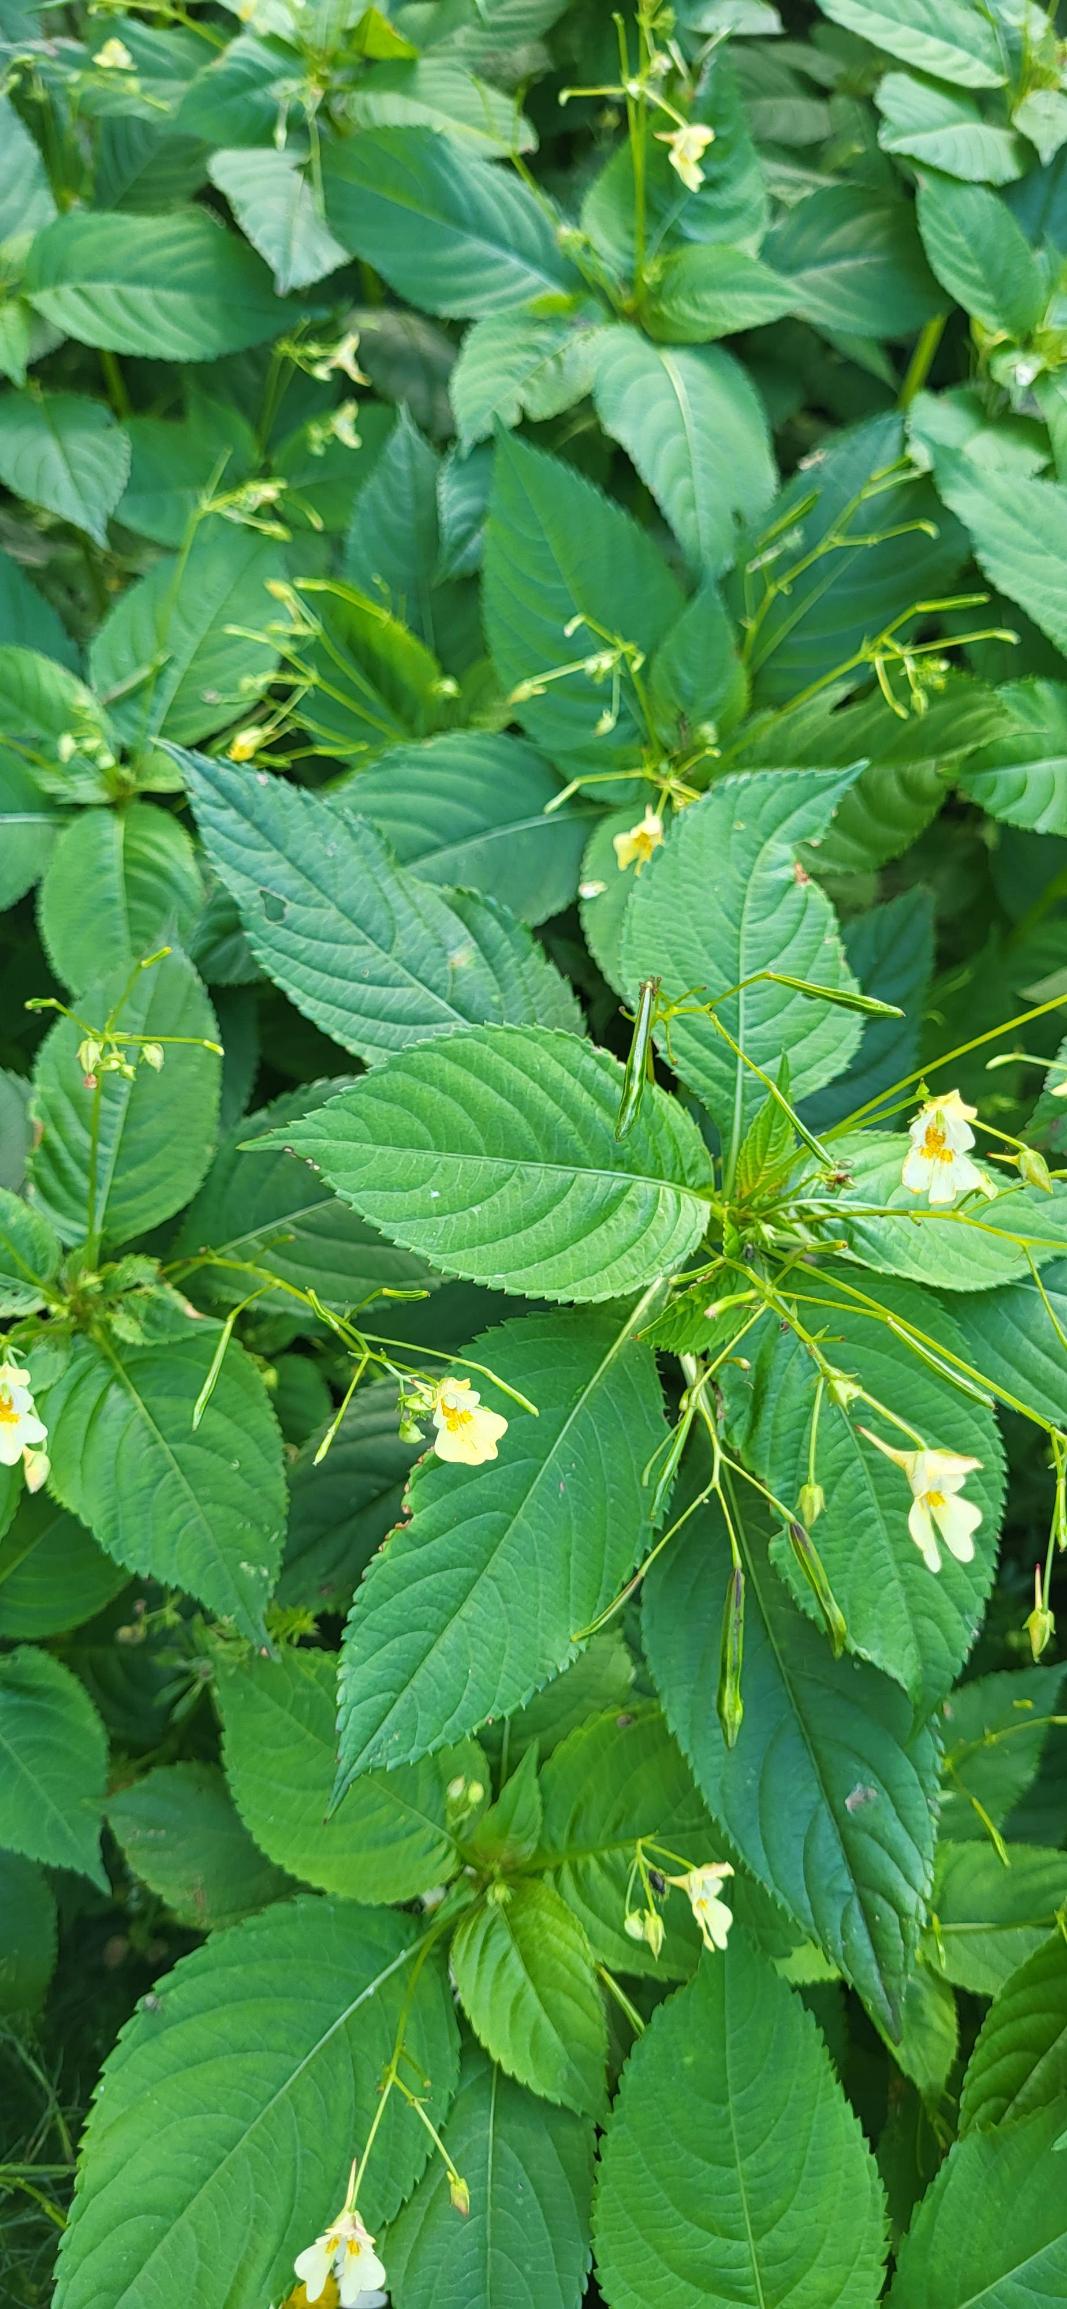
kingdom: Plantae
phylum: Tracheophyta
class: Magnoliopsida
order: Ericales
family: Balsaminaceae
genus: Impatiens
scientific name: Impatiens parviflora
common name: Småblomstret balsamin
